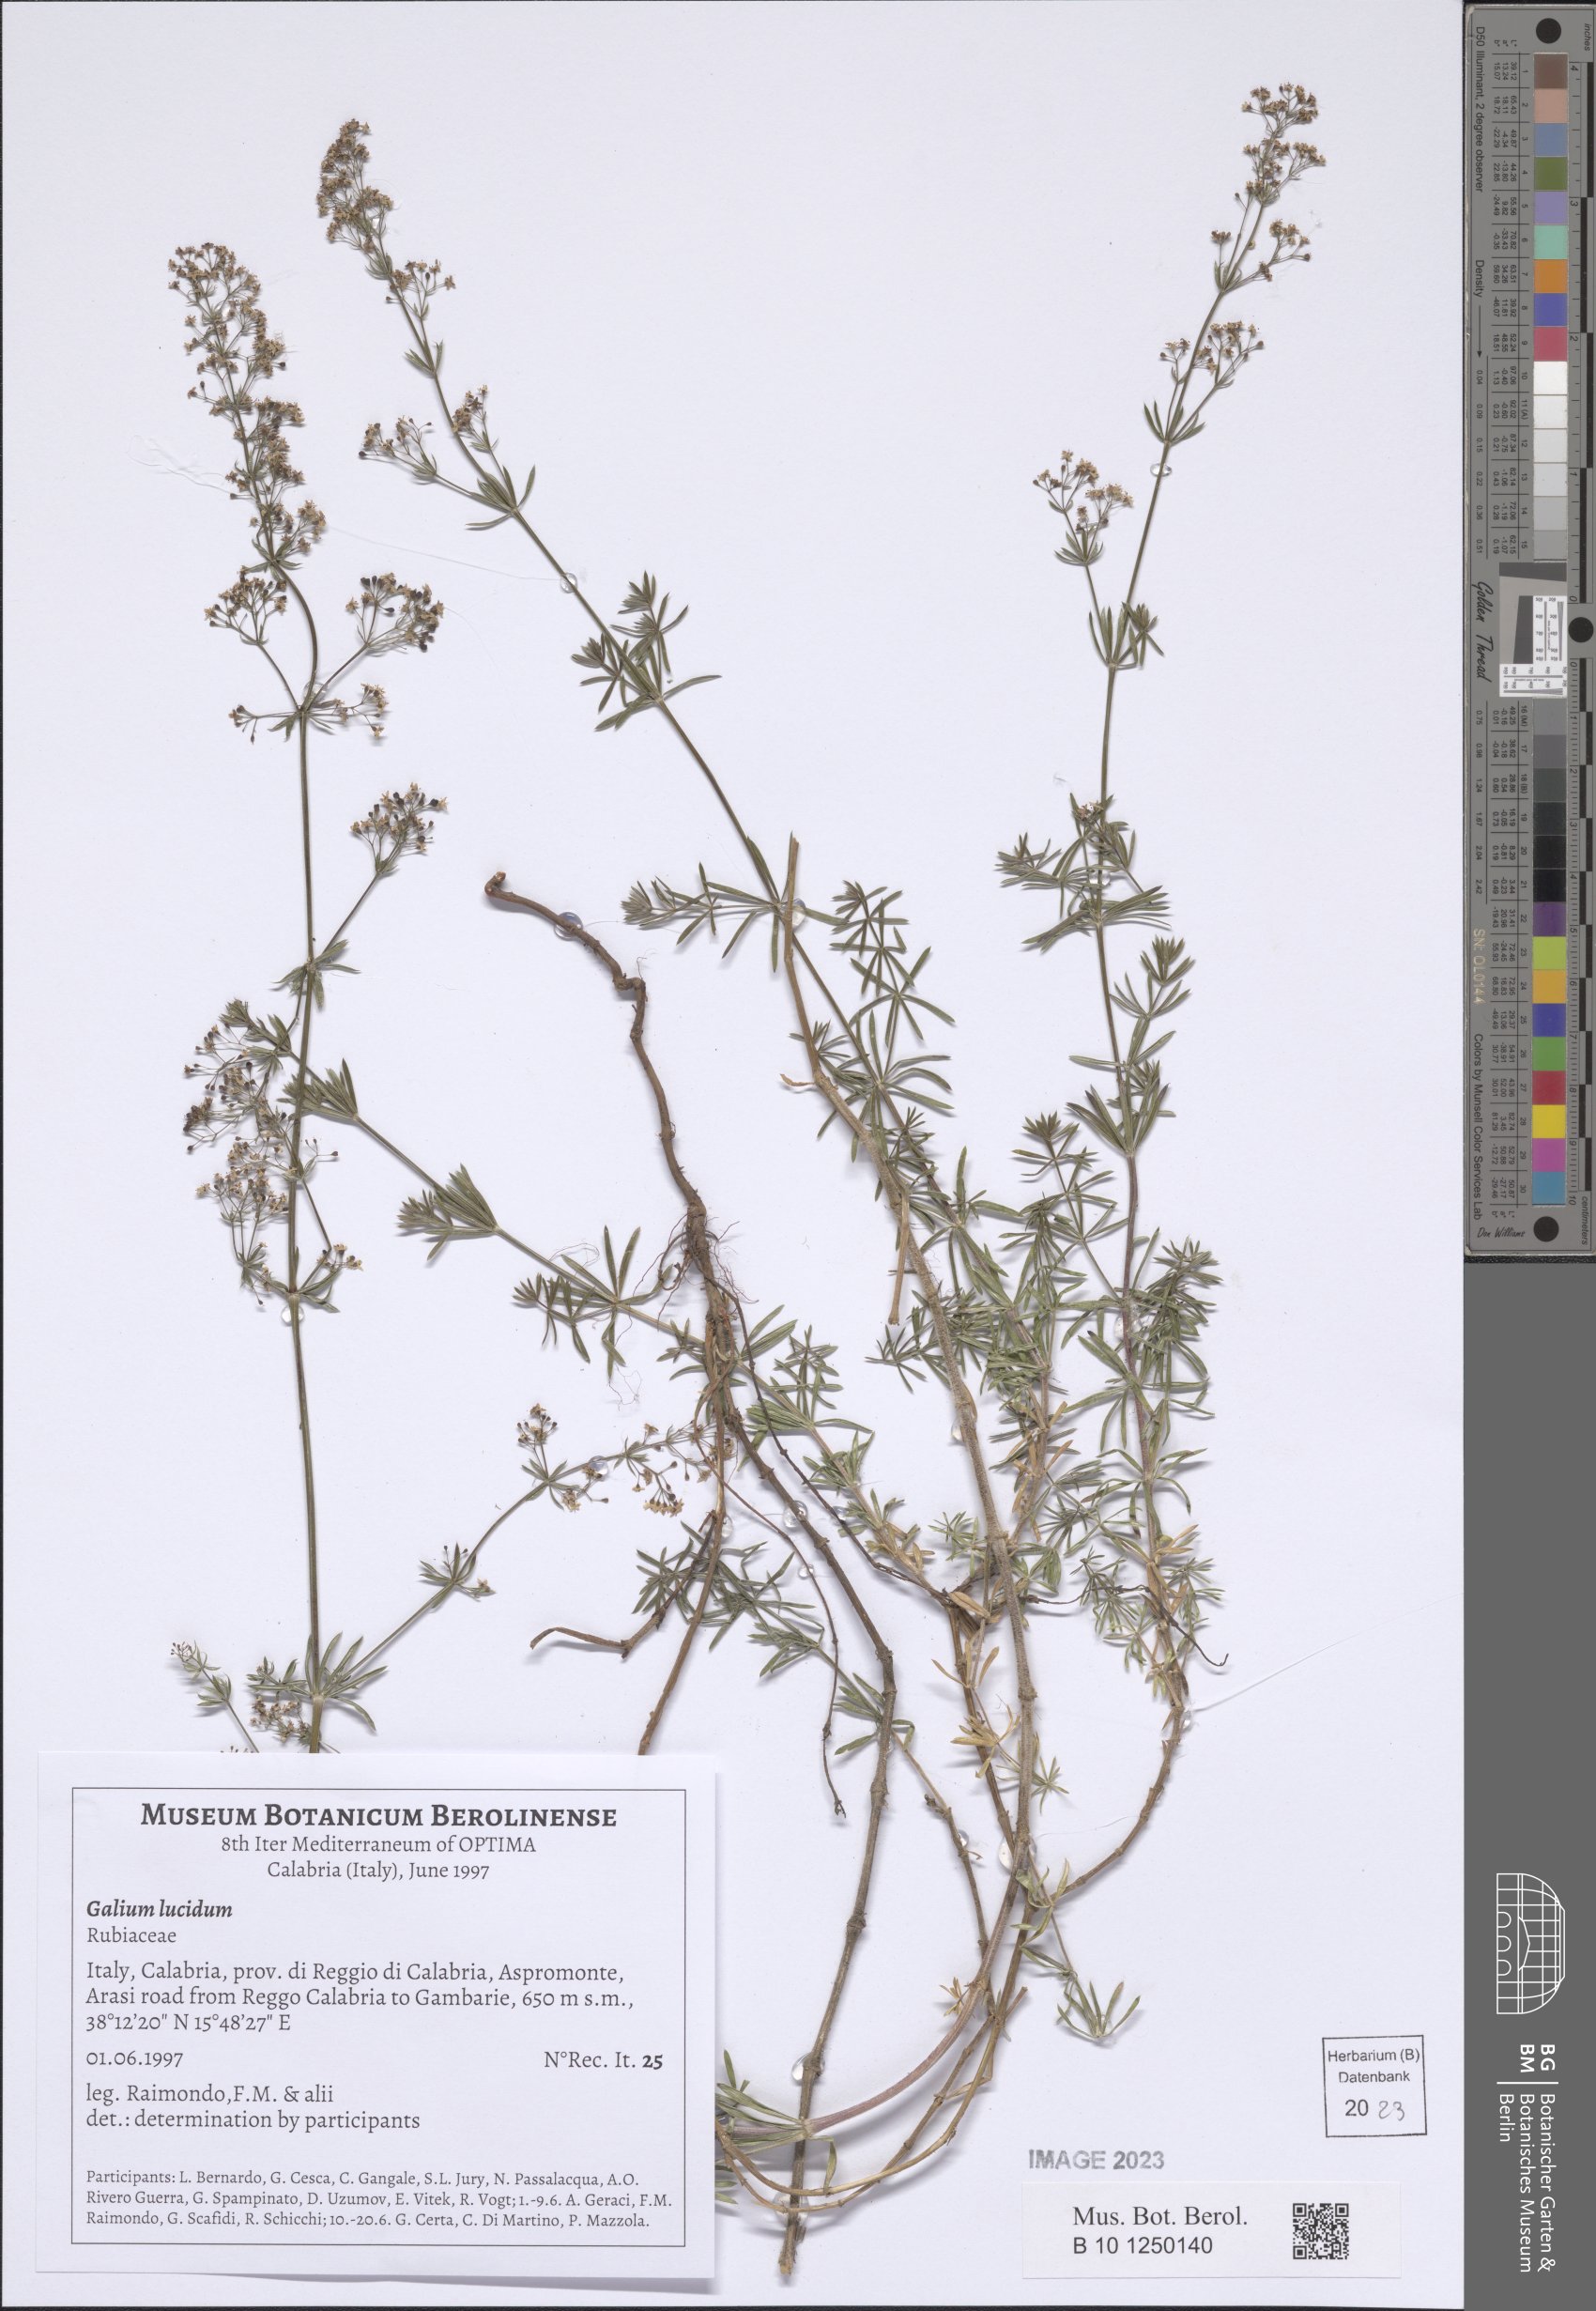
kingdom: Plantae
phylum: Tracheophyta
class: Magnoliopsida
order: Gentianales
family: Rubiaceae
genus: Galium
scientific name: Galium lucidum
